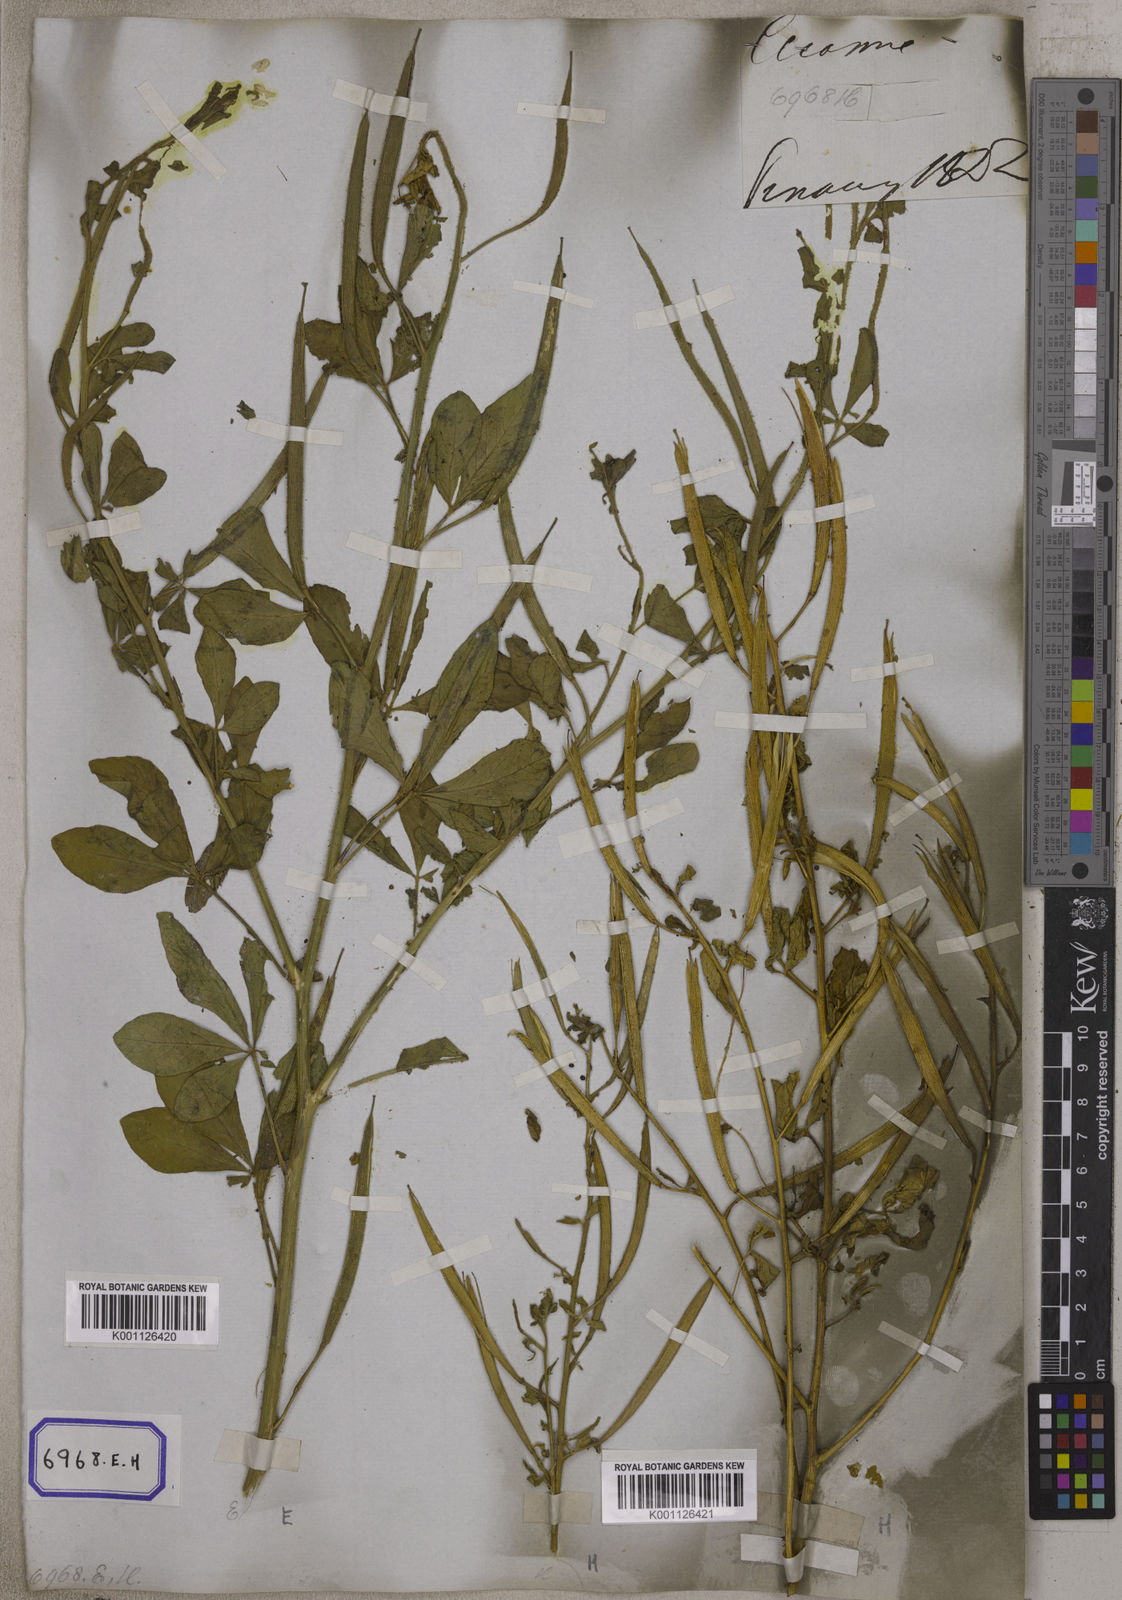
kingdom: Plantae
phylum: Tracheophyta
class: Magnoliopsida
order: Brassicales
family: Cleomaceae
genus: Arivela
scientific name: Arivela viscosa
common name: Asian spiderflower
